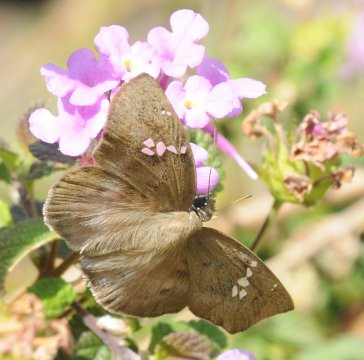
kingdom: Animalia
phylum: Arthropoda
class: Insecta
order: Lepidoptera
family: Hesperiidae
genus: Tagiades
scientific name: Tagiades flesus
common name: Clouded Flat
